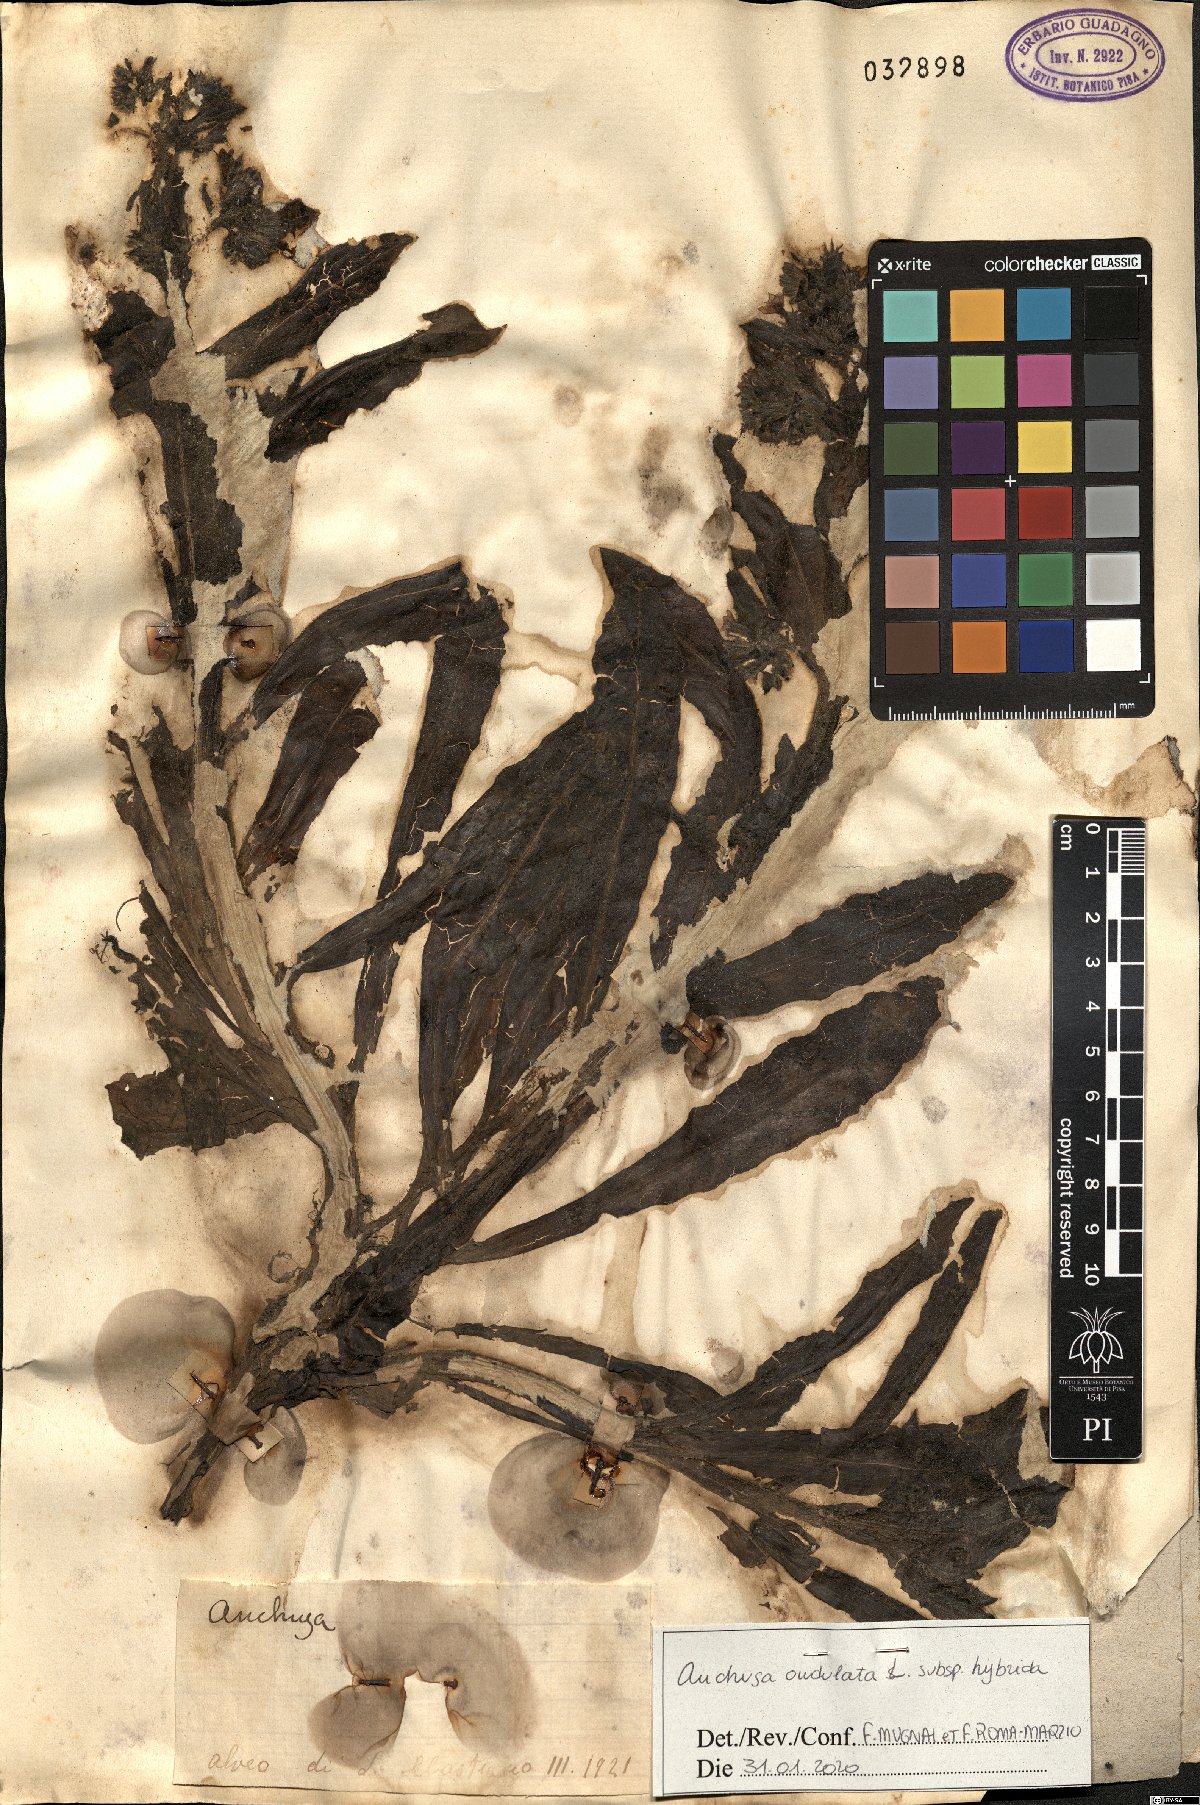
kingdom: Plantae
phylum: Tracheophyta
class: Magnoliopsida
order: Boraginales
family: Boraginaceae
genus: Anchusa
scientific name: Anchusa hybrida
